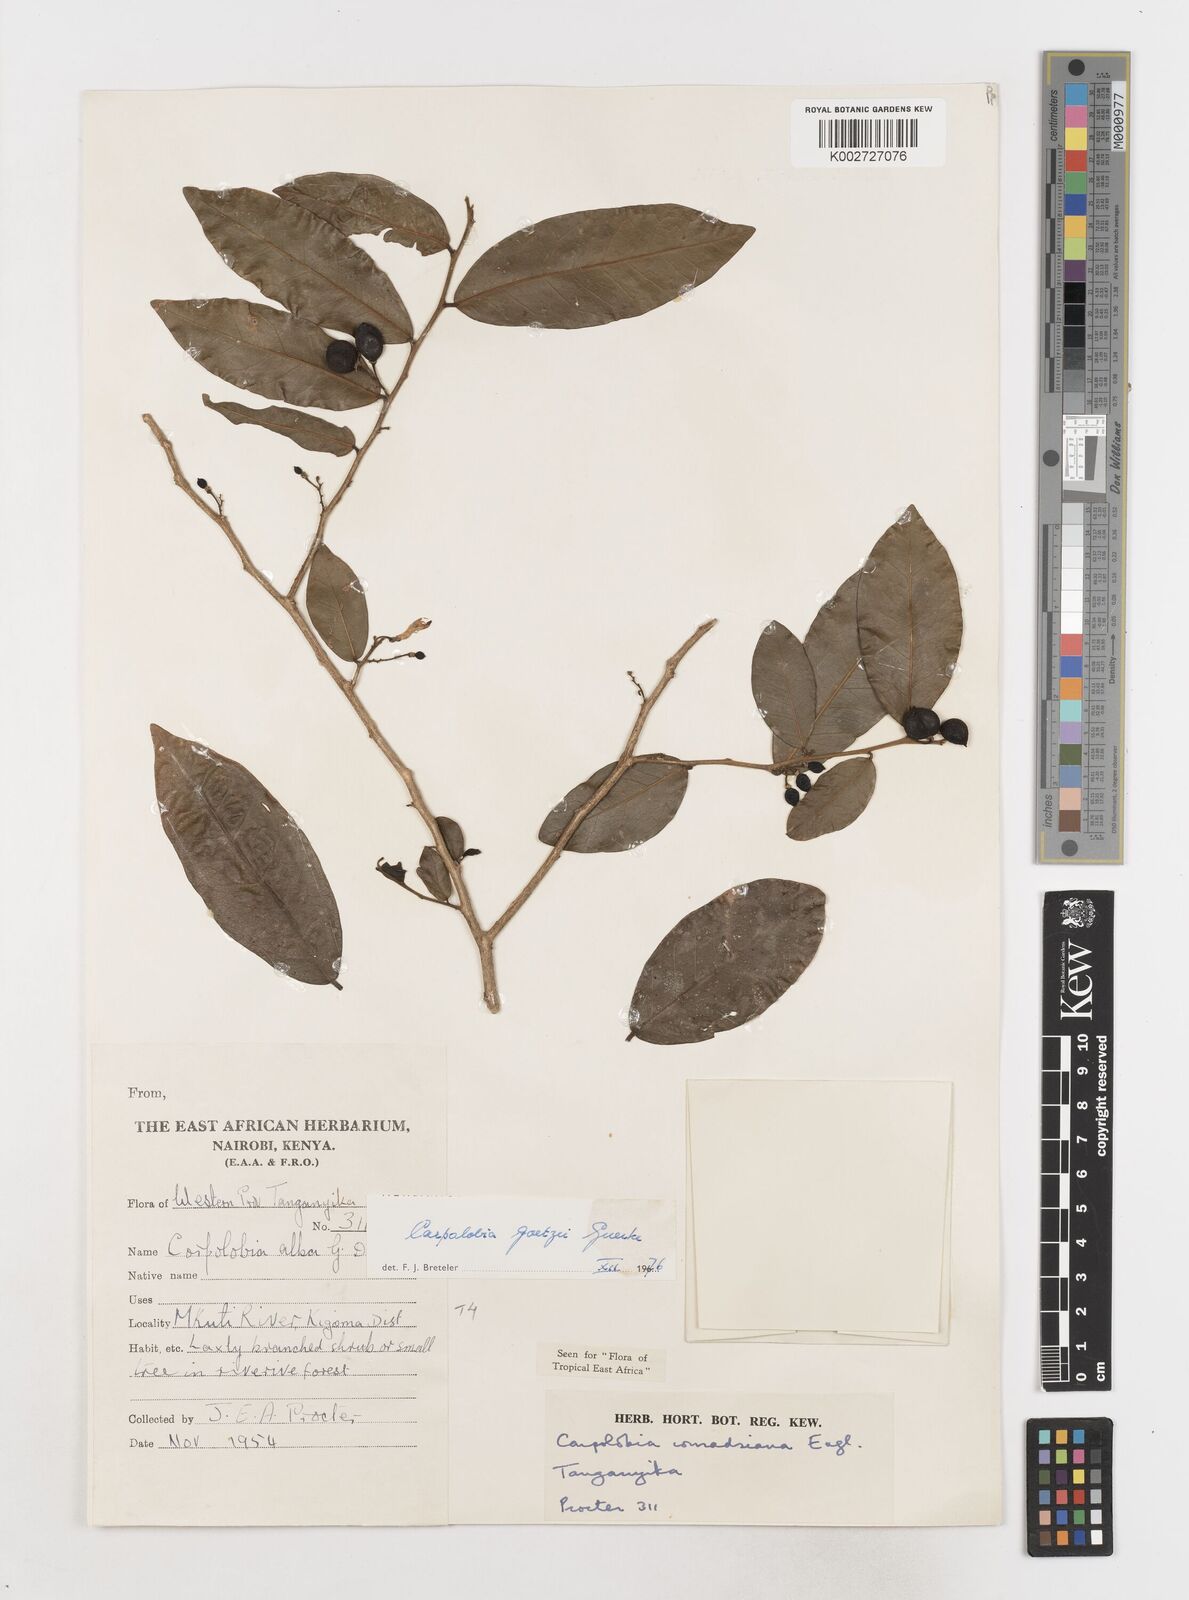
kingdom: Plantae
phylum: Tracheophyta
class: Magnoliopsida
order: Fabales
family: Polygalaceae
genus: Carpolobia
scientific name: Carpolobia goetzei
